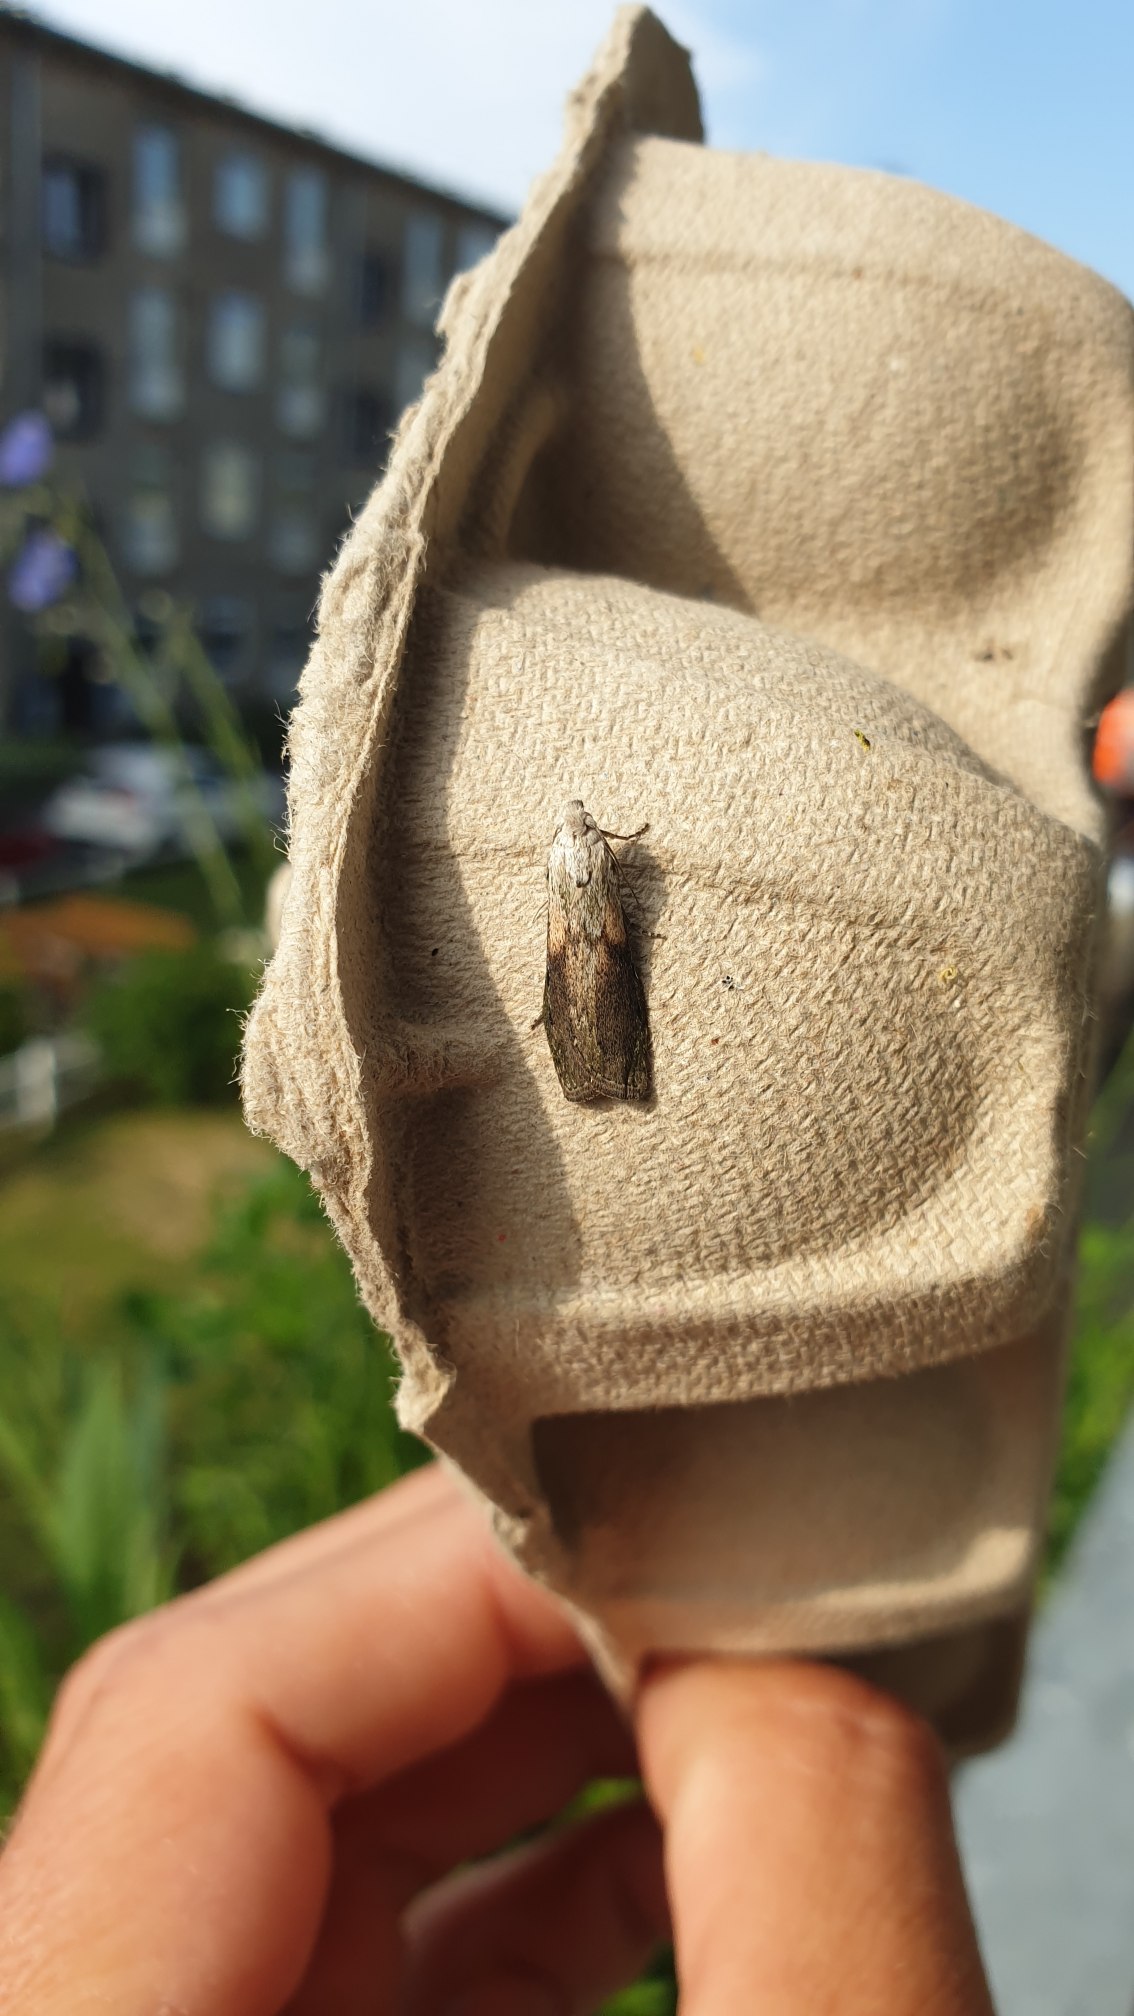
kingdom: Animalia
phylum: Arthropoda
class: Insecta
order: Lepidoptera
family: Pyralidae
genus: Aphomia
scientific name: Aphomia sociella
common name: Humlevoksmøl
